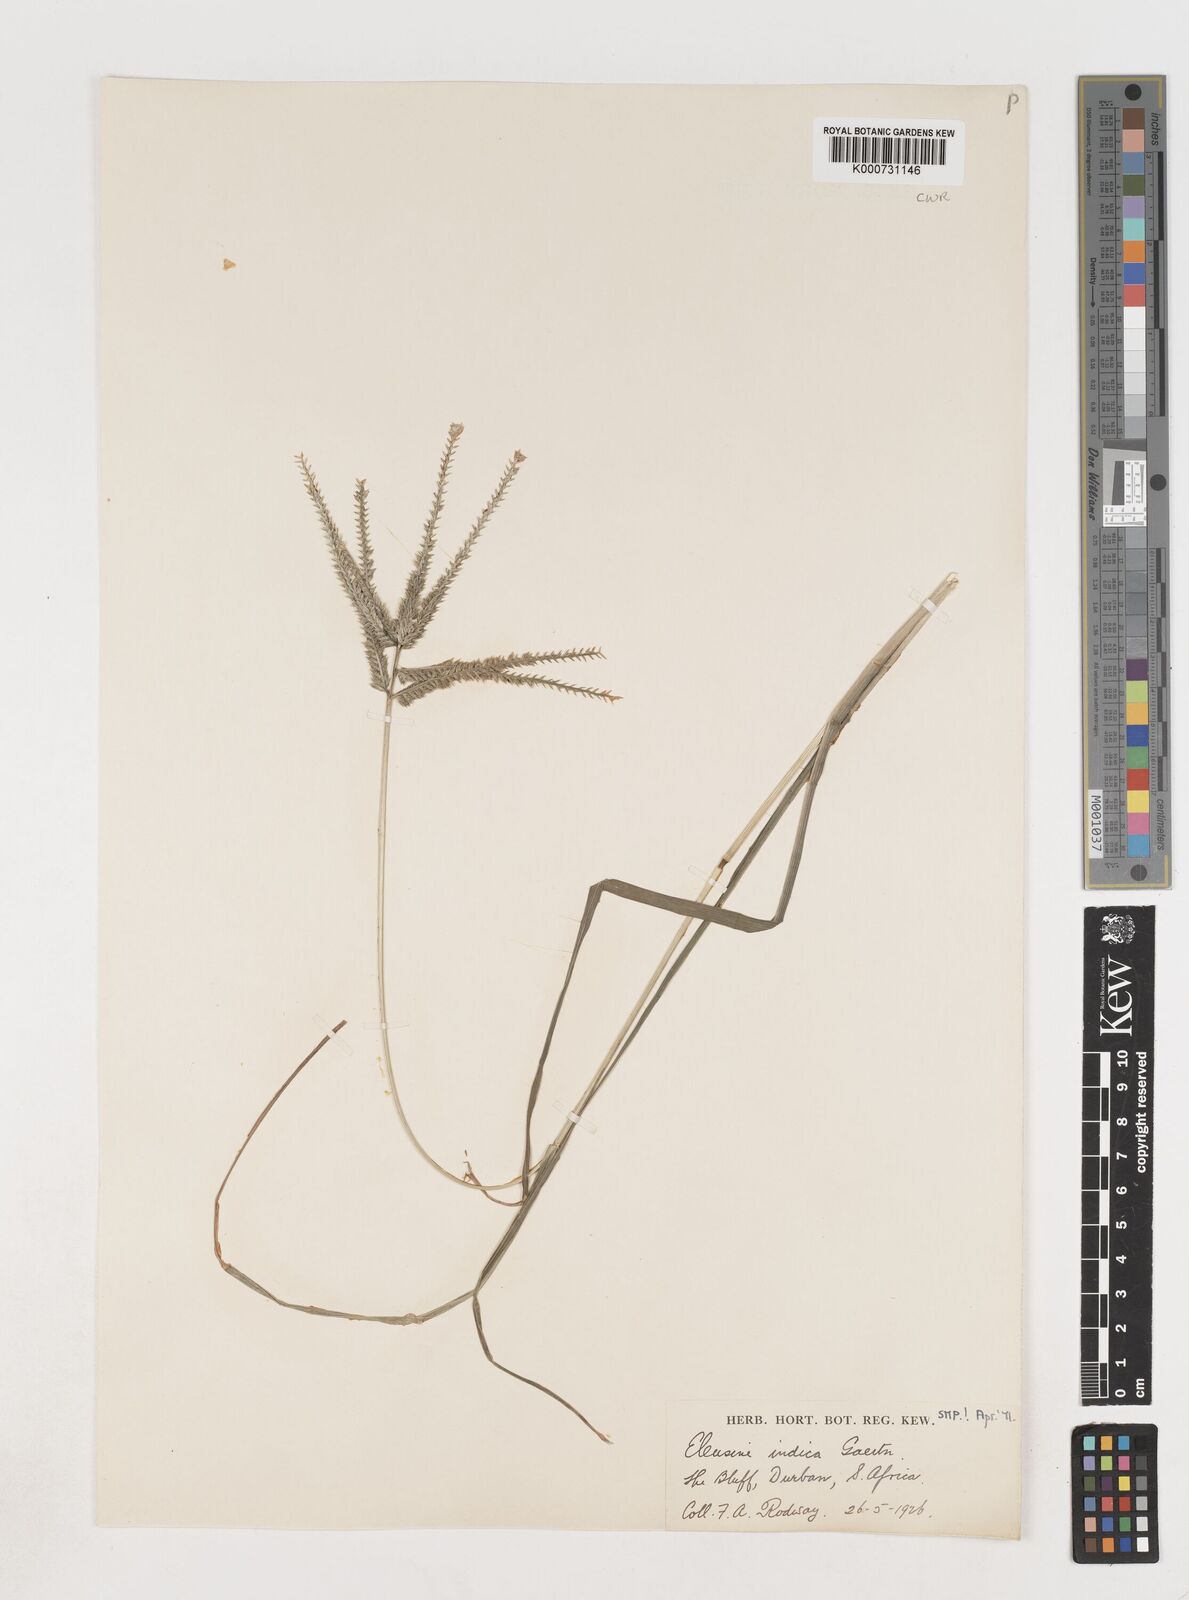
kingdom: Plantae
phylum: Tracheophyta
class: Liliopsida
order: Poales
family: Poaceae
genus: Eleusine
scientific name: Eleusine indica
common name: Yard-grass
